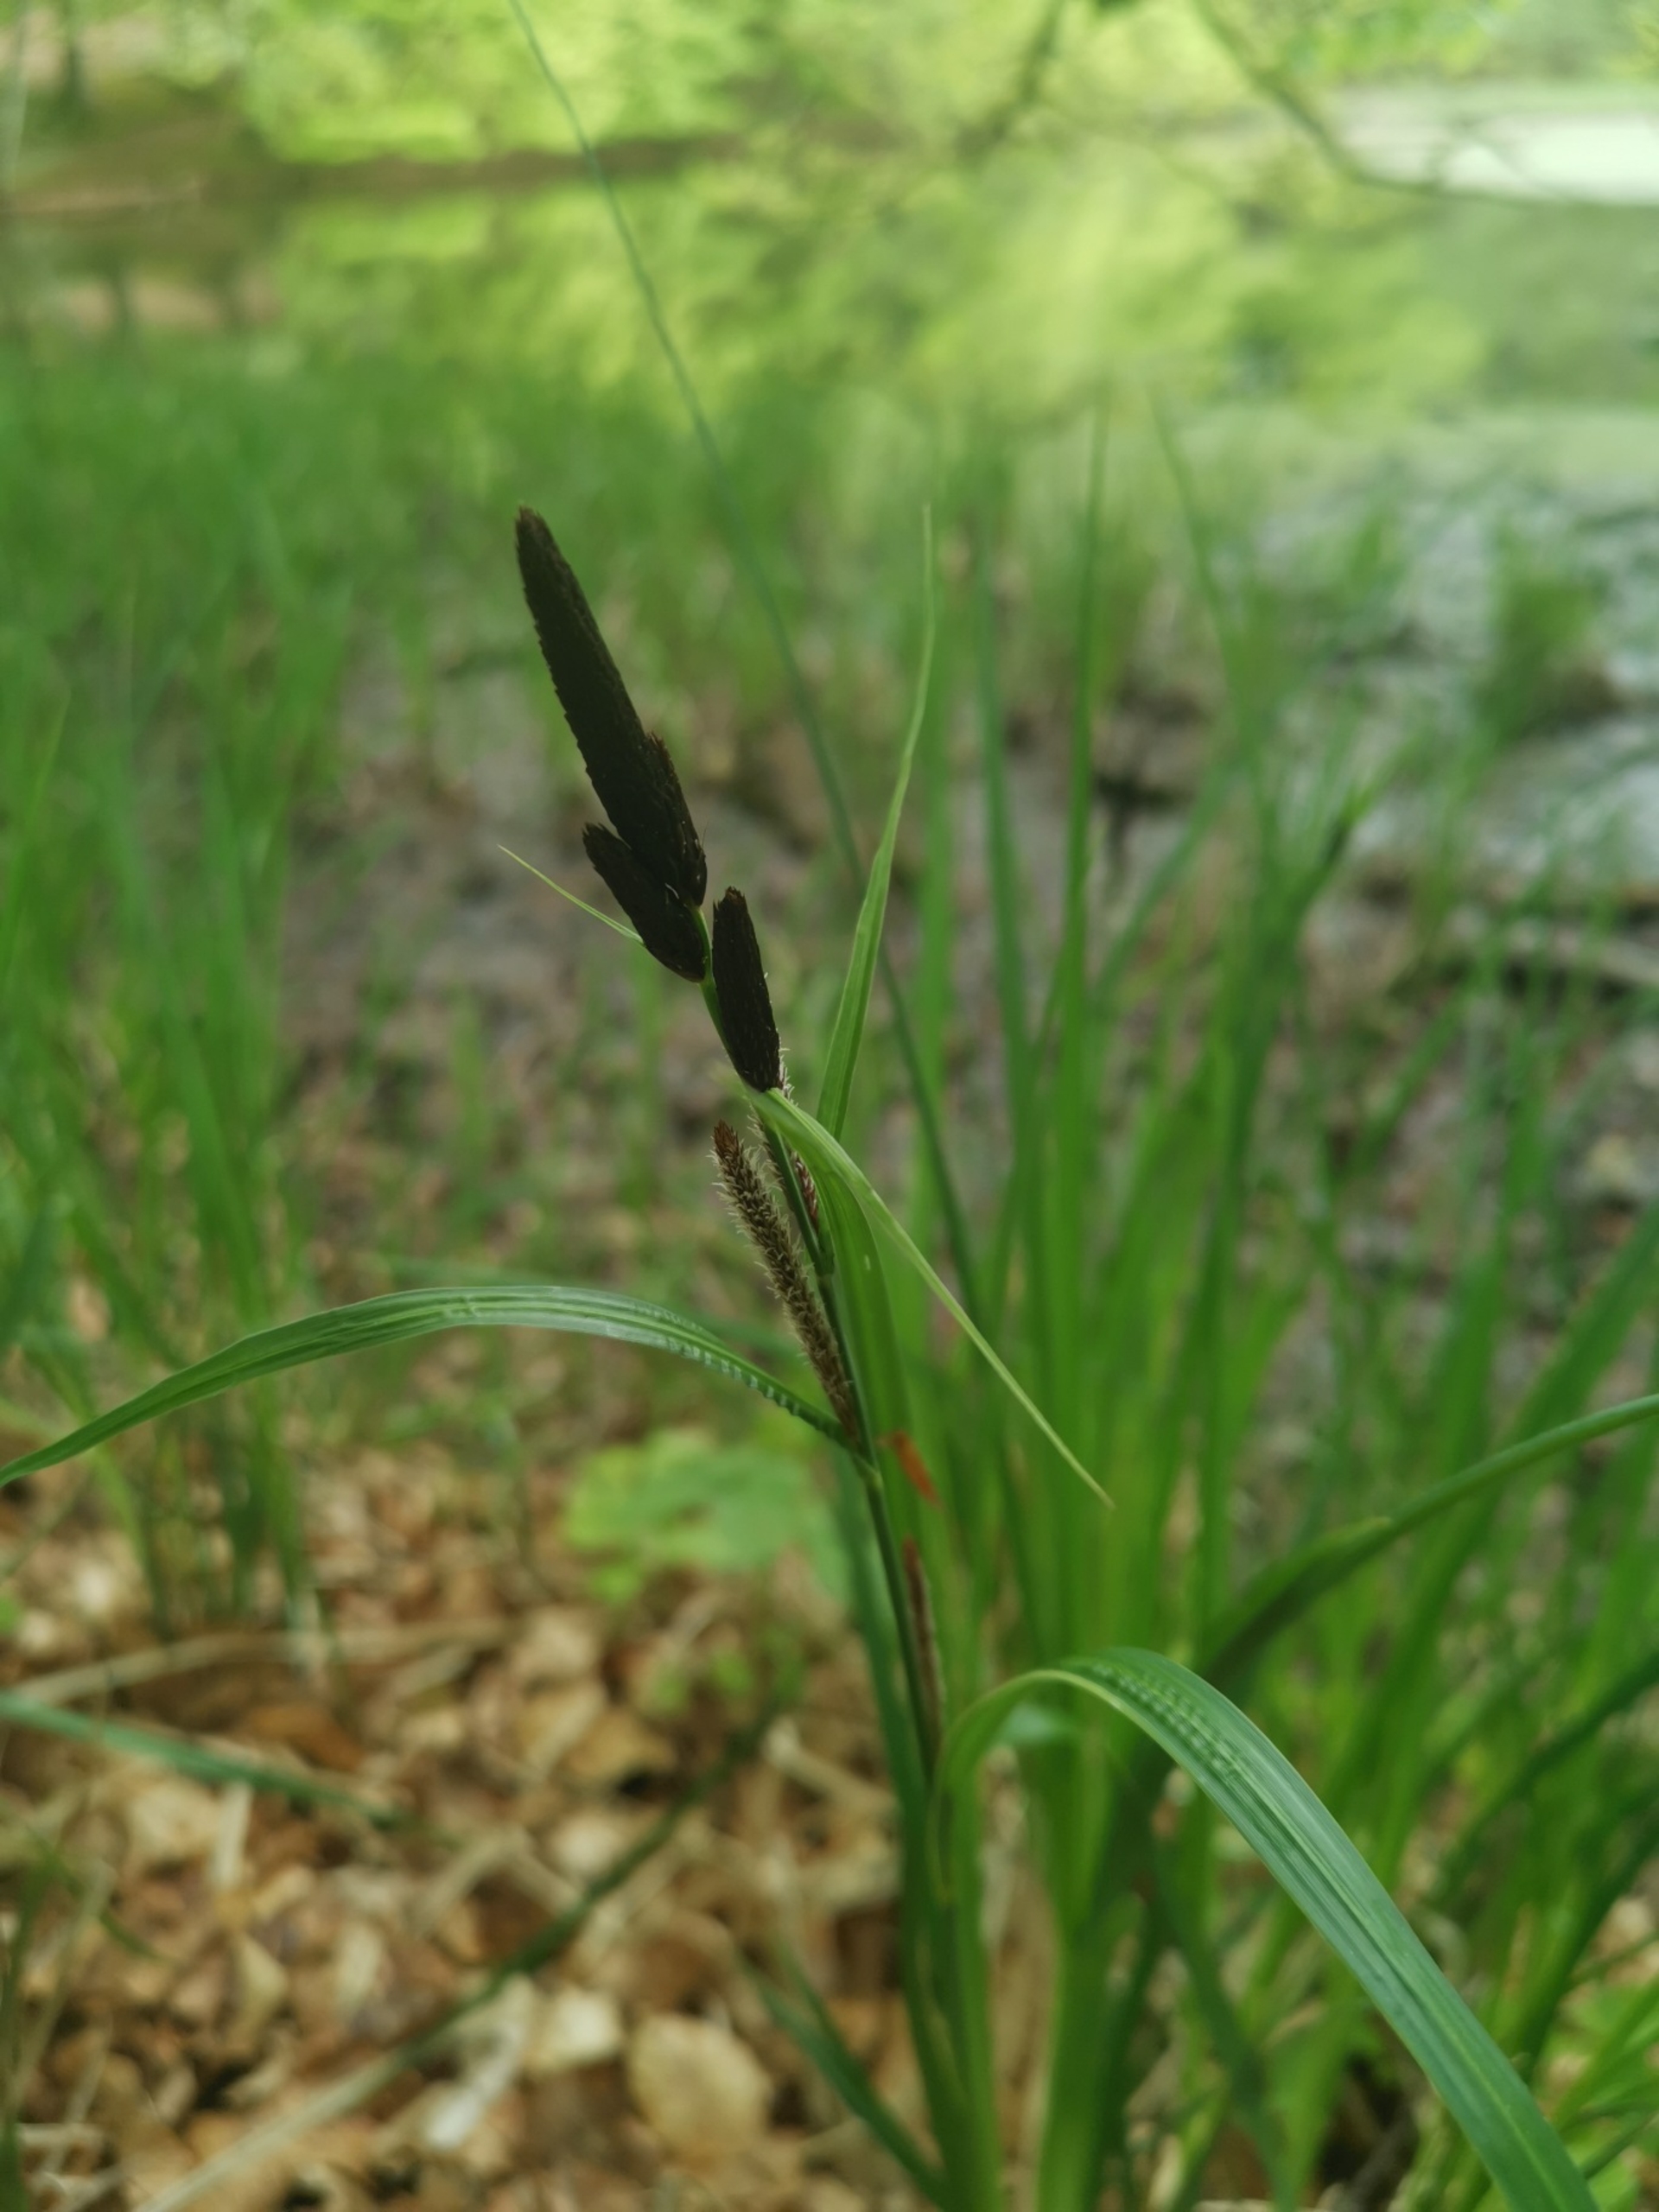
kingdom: Plantae
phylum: Tracheophyta
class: Liliopsida
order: Poales
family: Cyperaceae
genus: Carex
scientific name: Carex
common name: Starslægten
